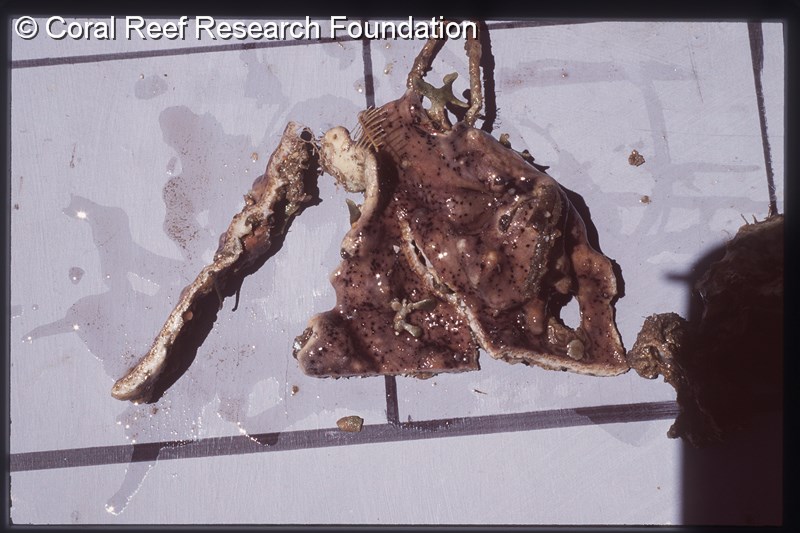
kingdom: Animalia
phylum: Chordata
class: Ascidiacea
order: Aplousobranchia
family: Didemnidae
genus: Didemnum
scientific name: Didemnum
